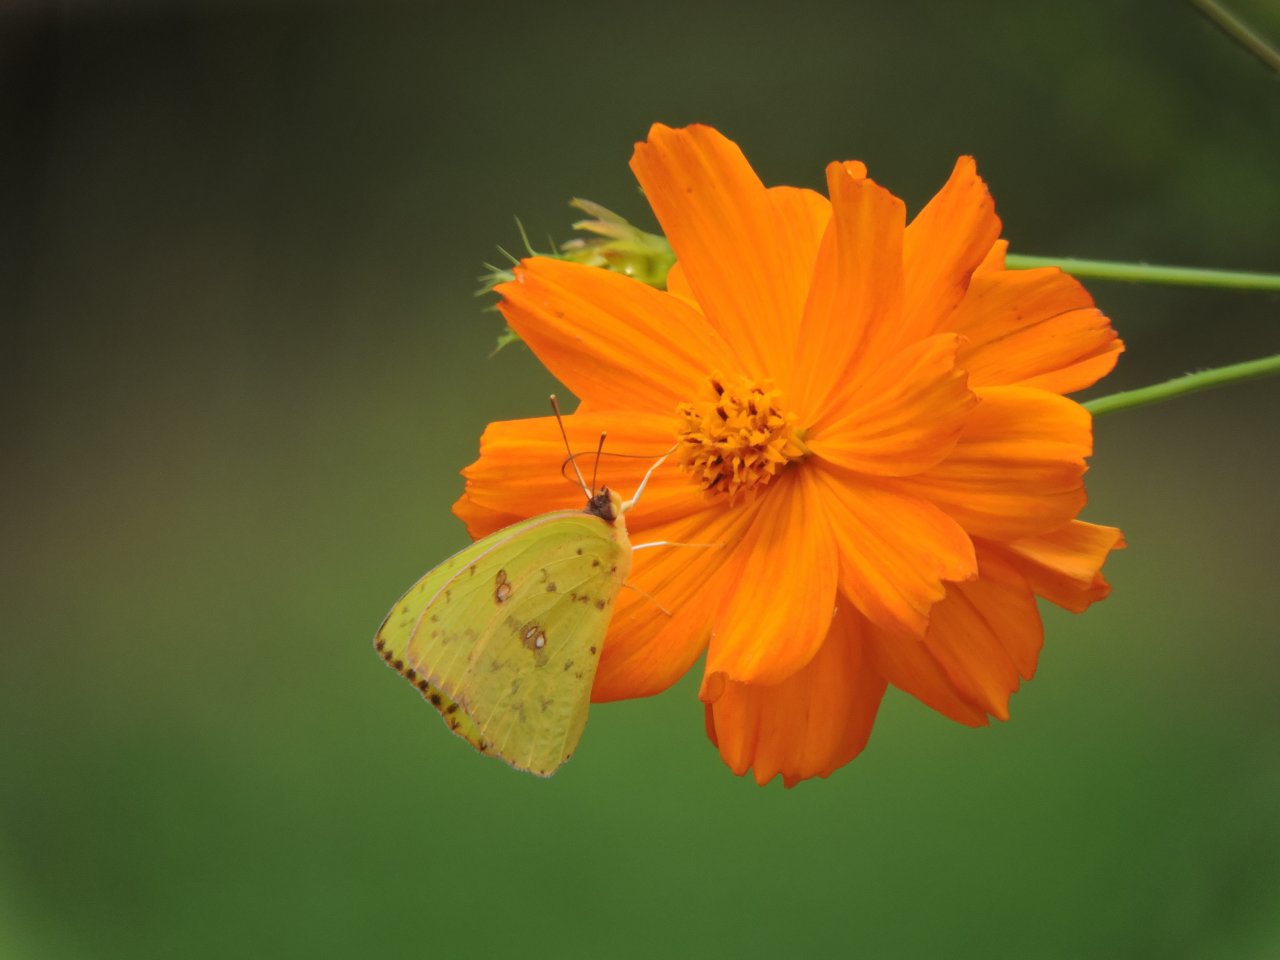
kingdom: Animalia
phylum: Arthropoda
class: Insecta
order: Lepidoptera
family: Pieridae
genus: Phoebis
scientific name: Phoebis sennae
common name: Cloudless Sulphur
